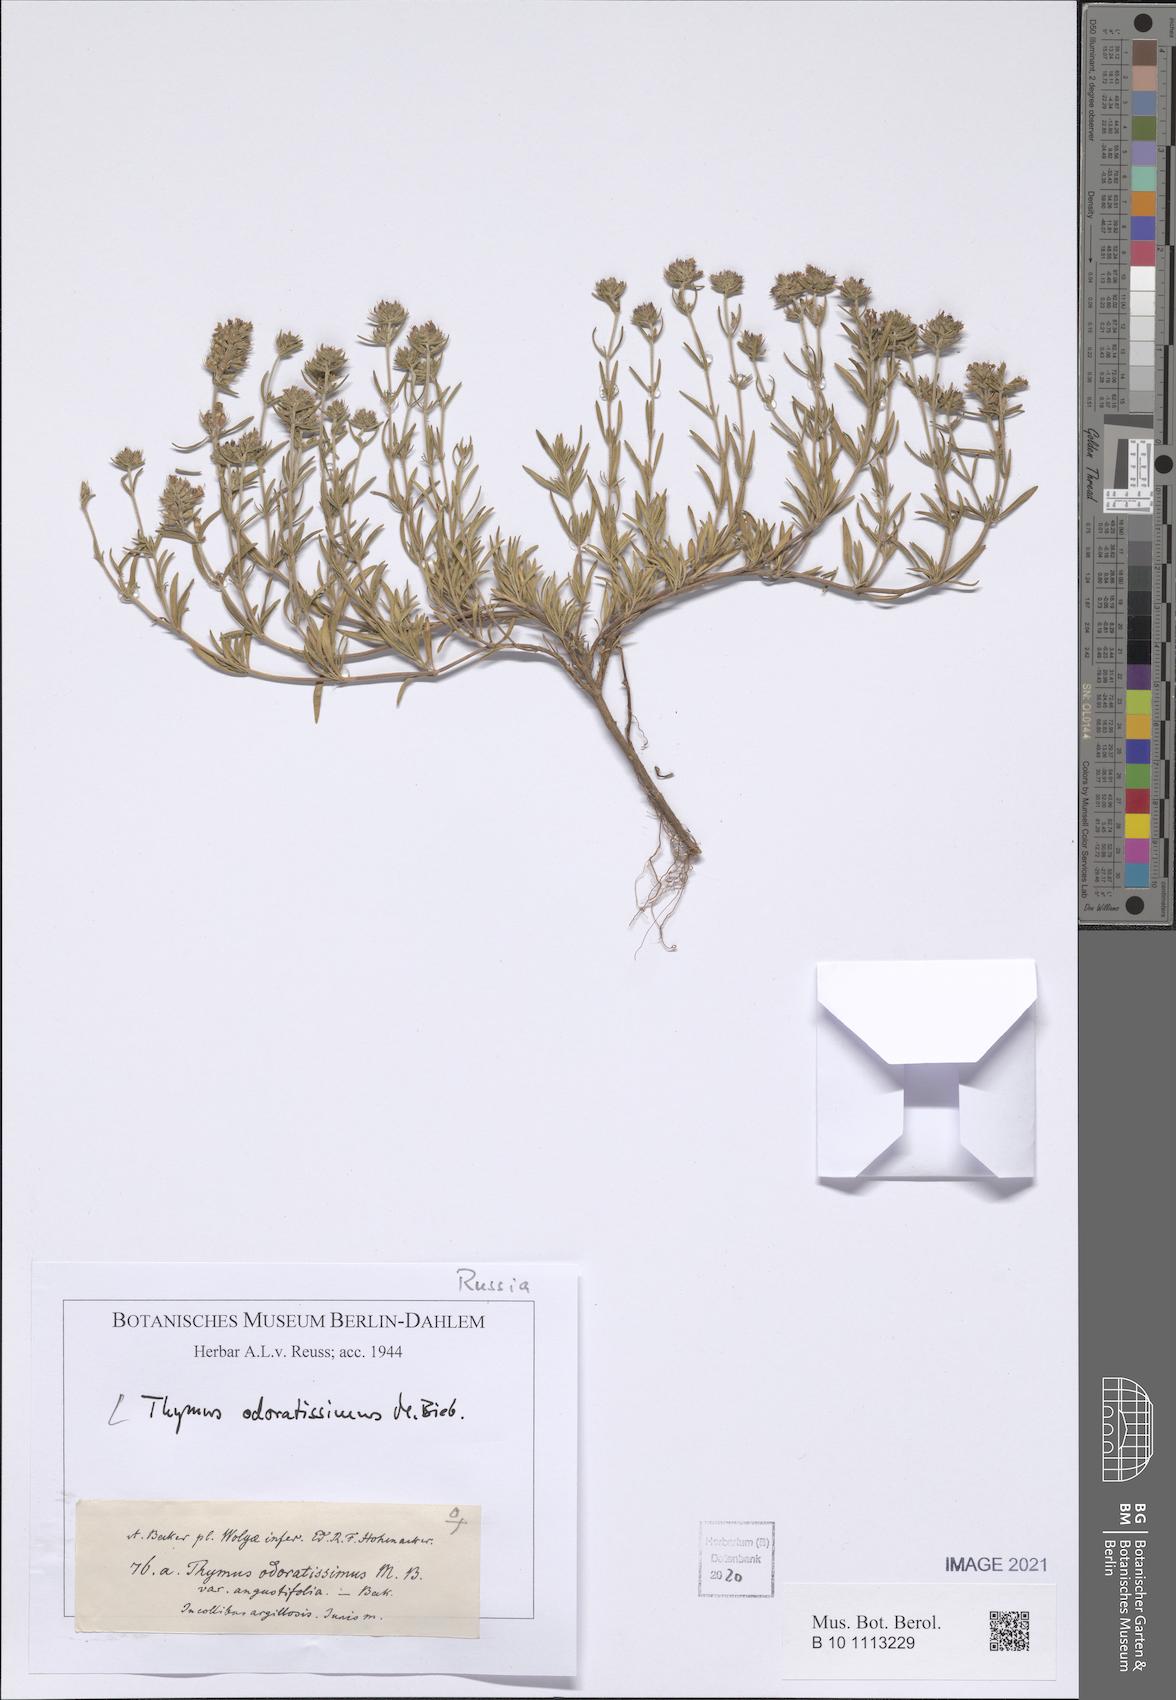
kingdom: Plantae
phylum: Tracheophyta
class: Magnoliopsida
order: Lamiales
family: Lamiaceae
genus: Thymus
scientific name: Thymus odoratissimus
